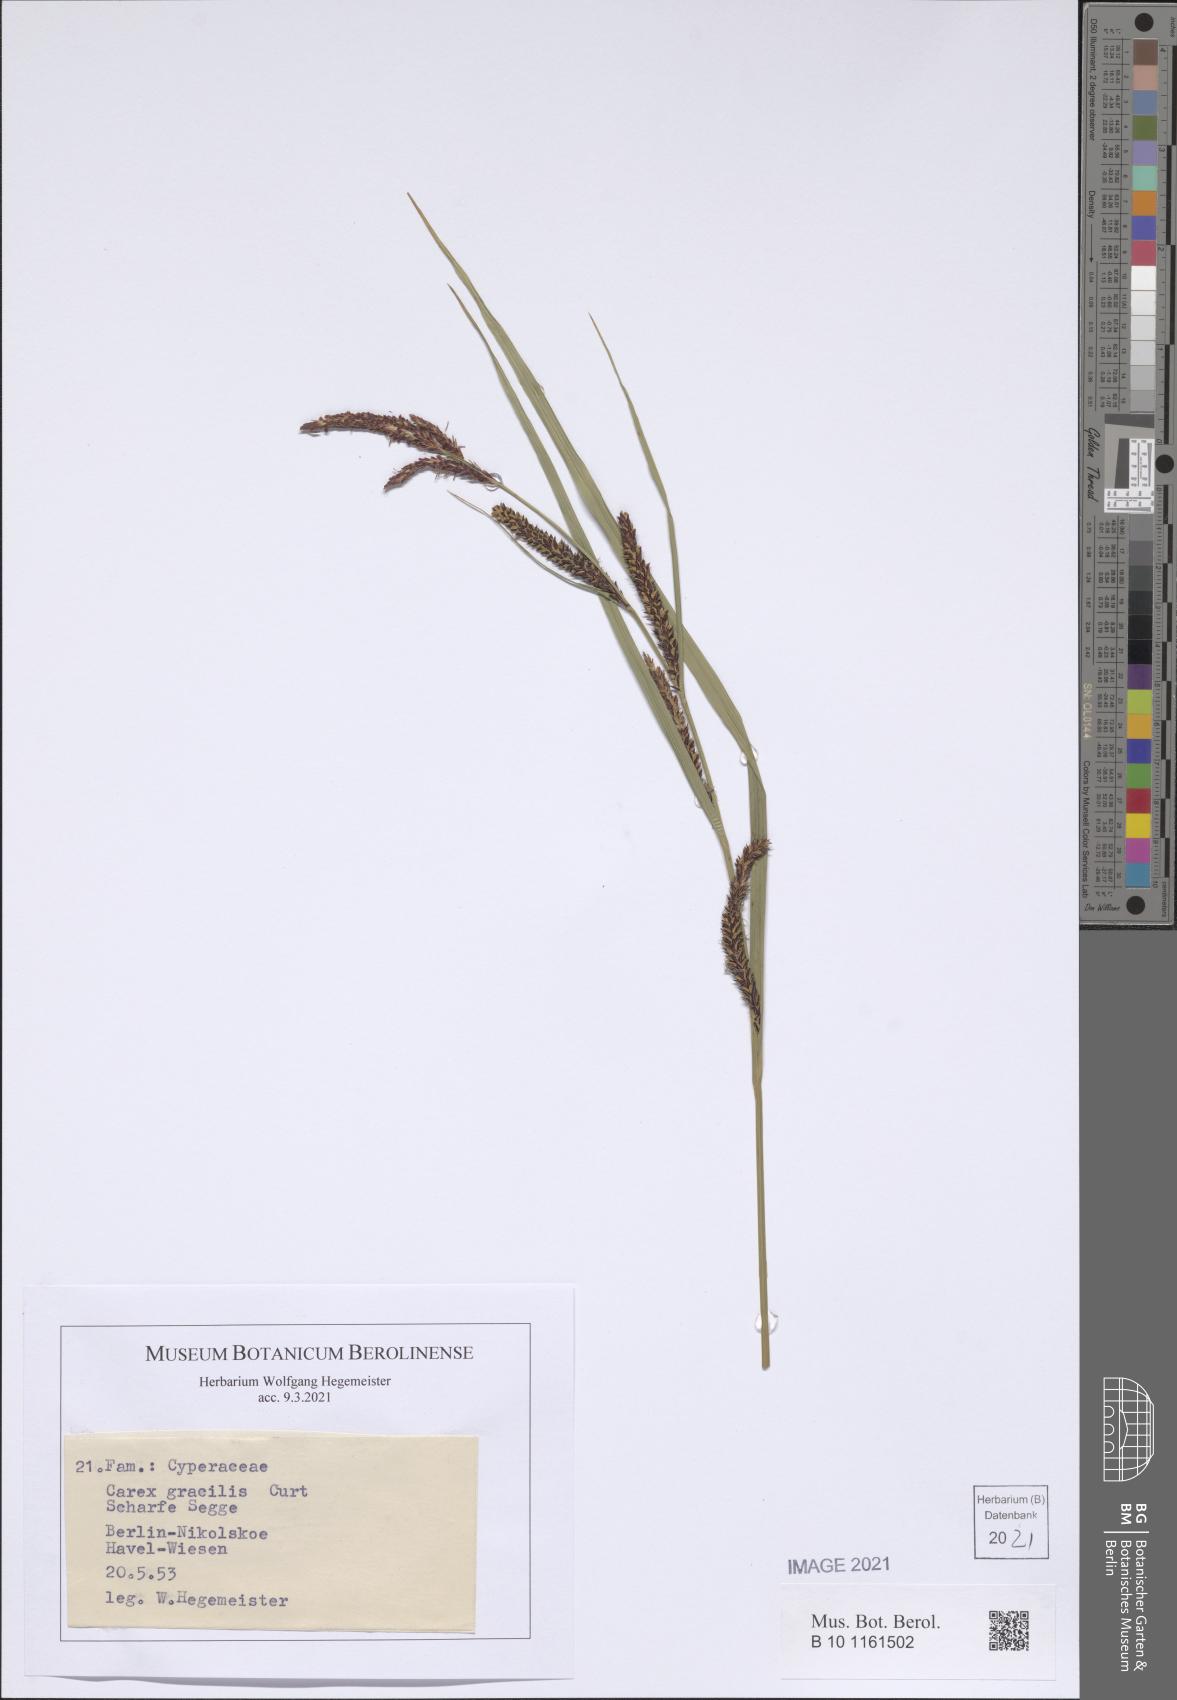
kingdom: Plantae
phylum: Tracheophyta
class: Liliopsida
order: Poales
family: Cyperaceae
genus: Carex
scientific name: Carex acuta
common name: Slender tufted-sedge
